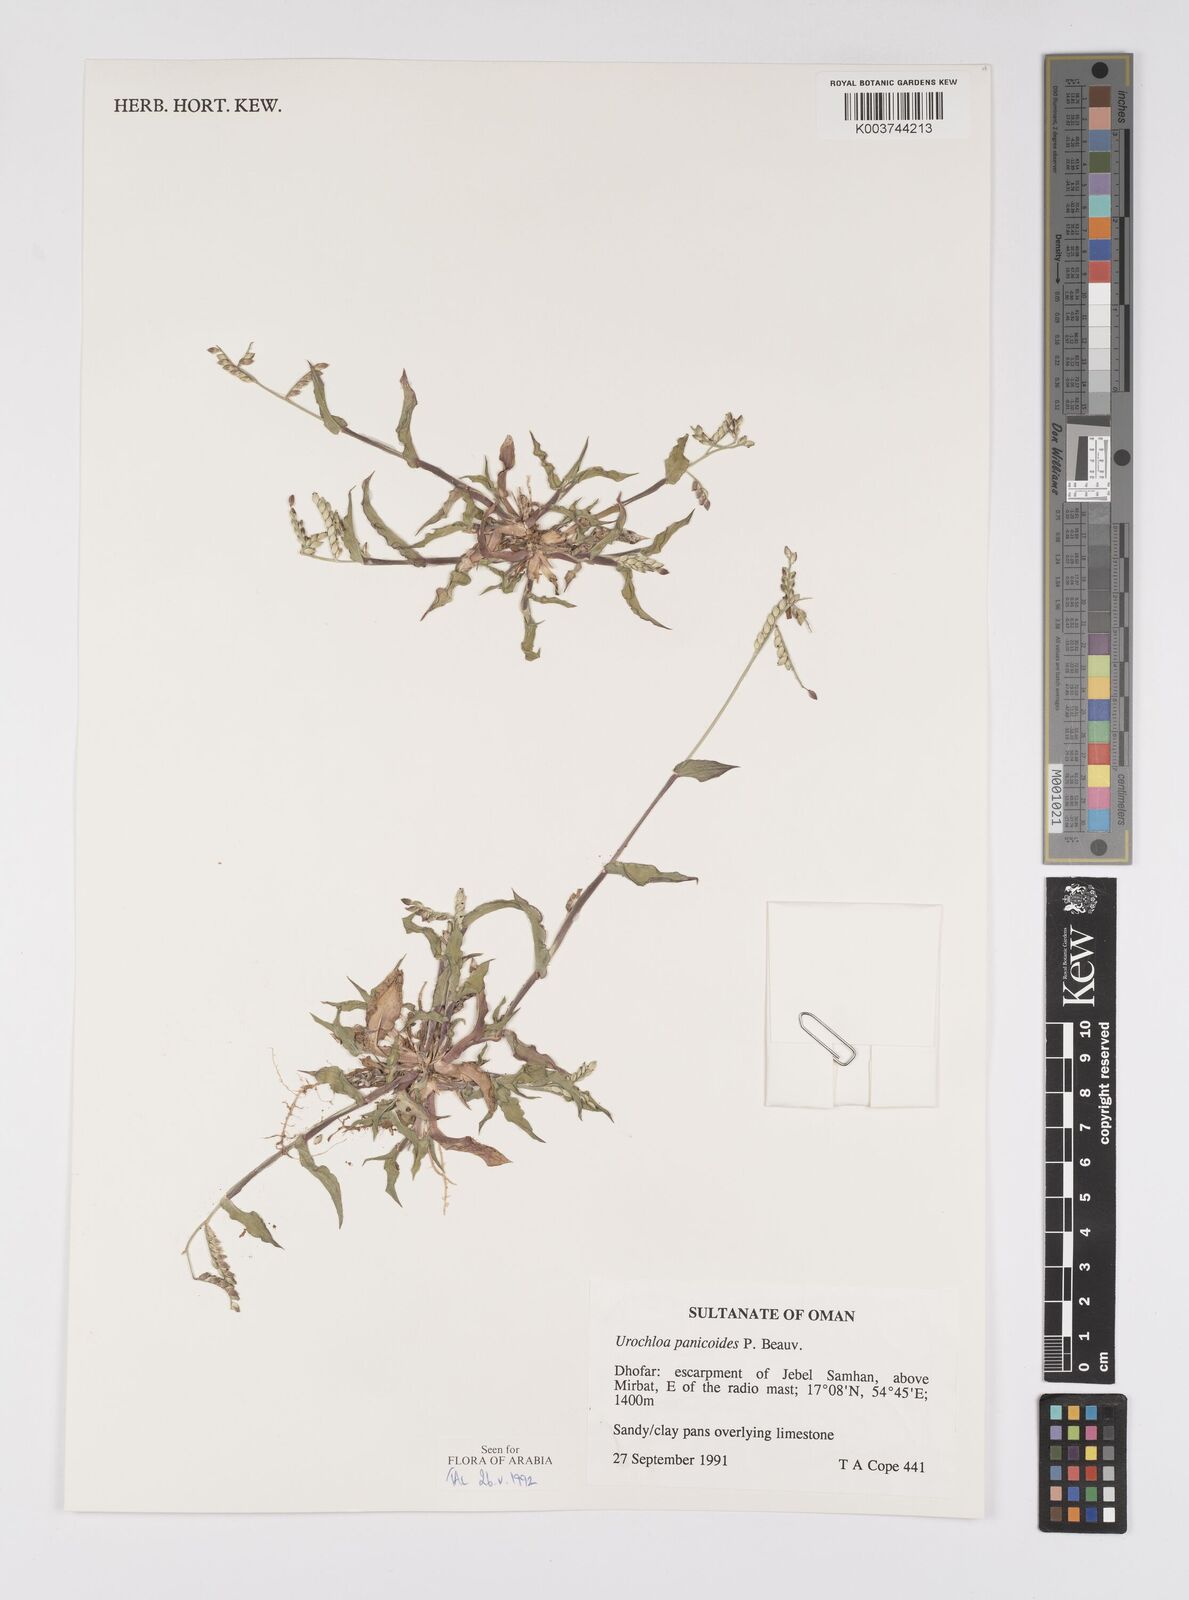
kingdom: Plantae
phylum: Tracheophyta
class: Liliopsida
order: Poales
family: Poaceae
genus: Urochloa
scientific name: Urochloa panicoides
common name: Sharp-flowered signal-grass
